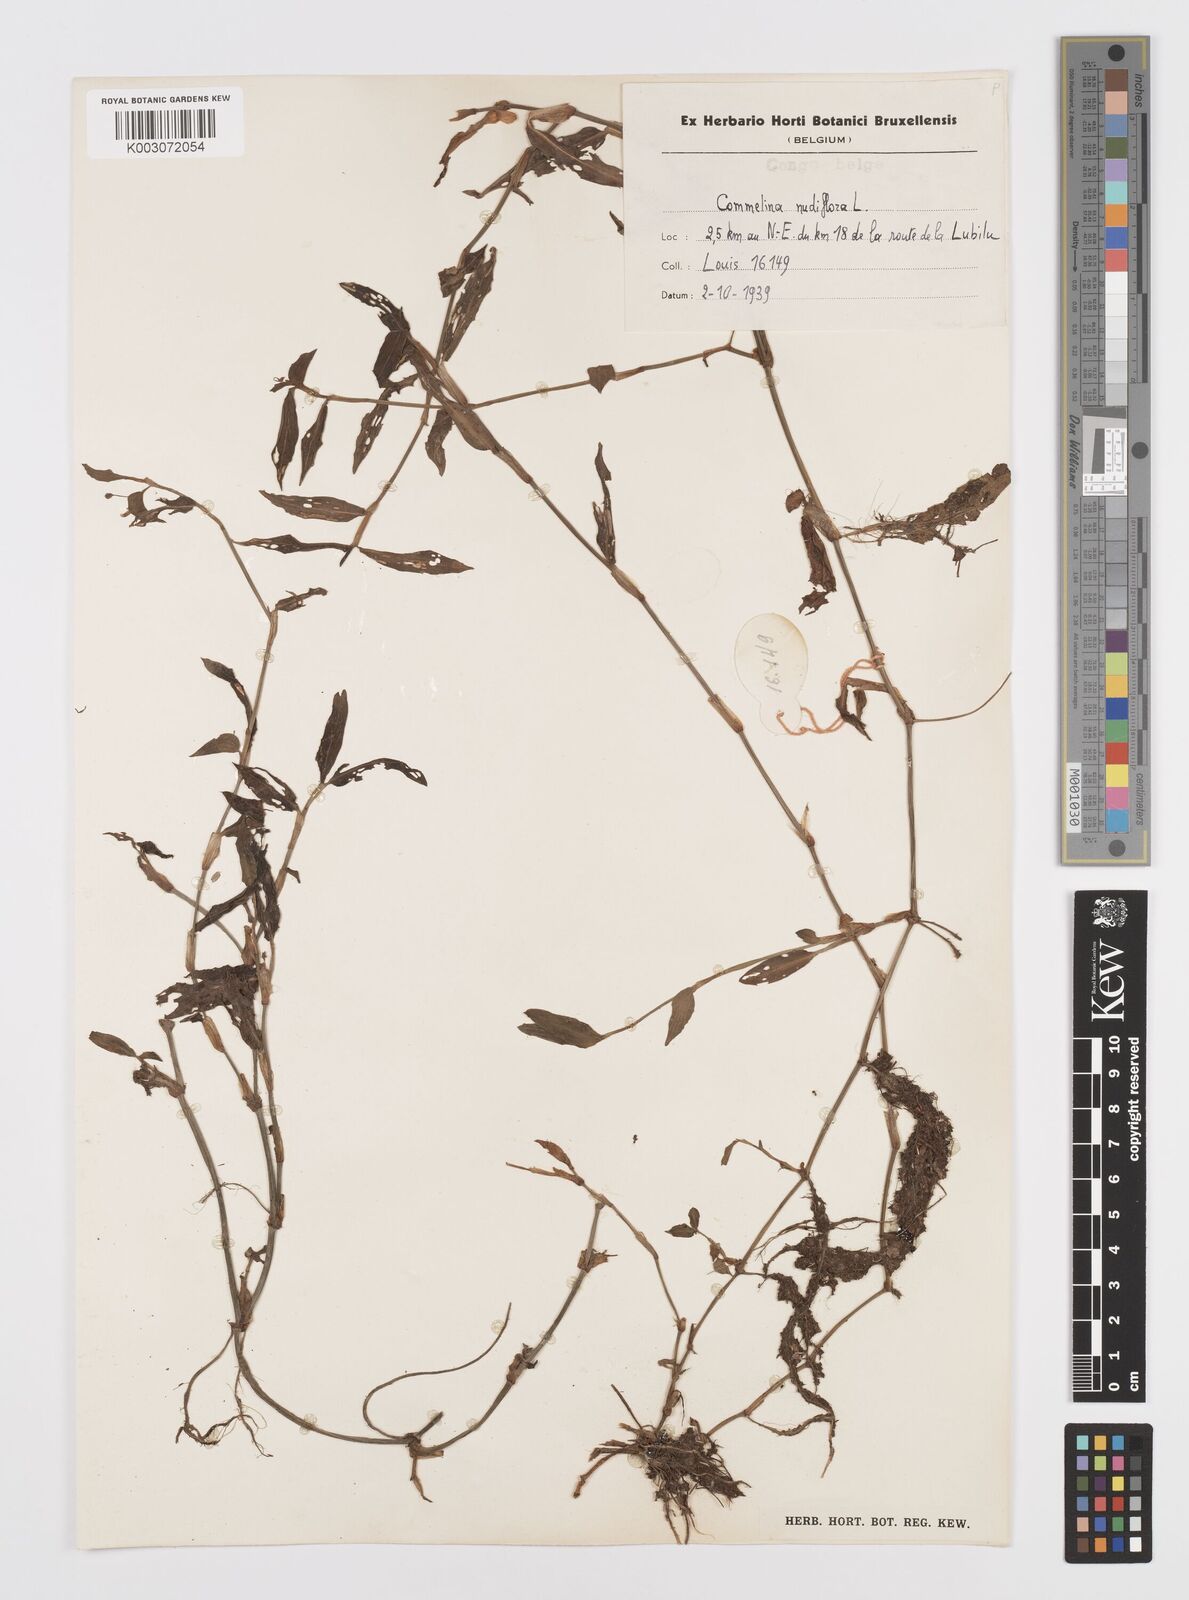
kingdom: Plantae
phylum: Tracheophyta
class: Liliopsida
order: Commelinales
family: Commelinaceae
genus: Commelina
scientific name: Commelina diffusa
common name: Climbing dayflower
